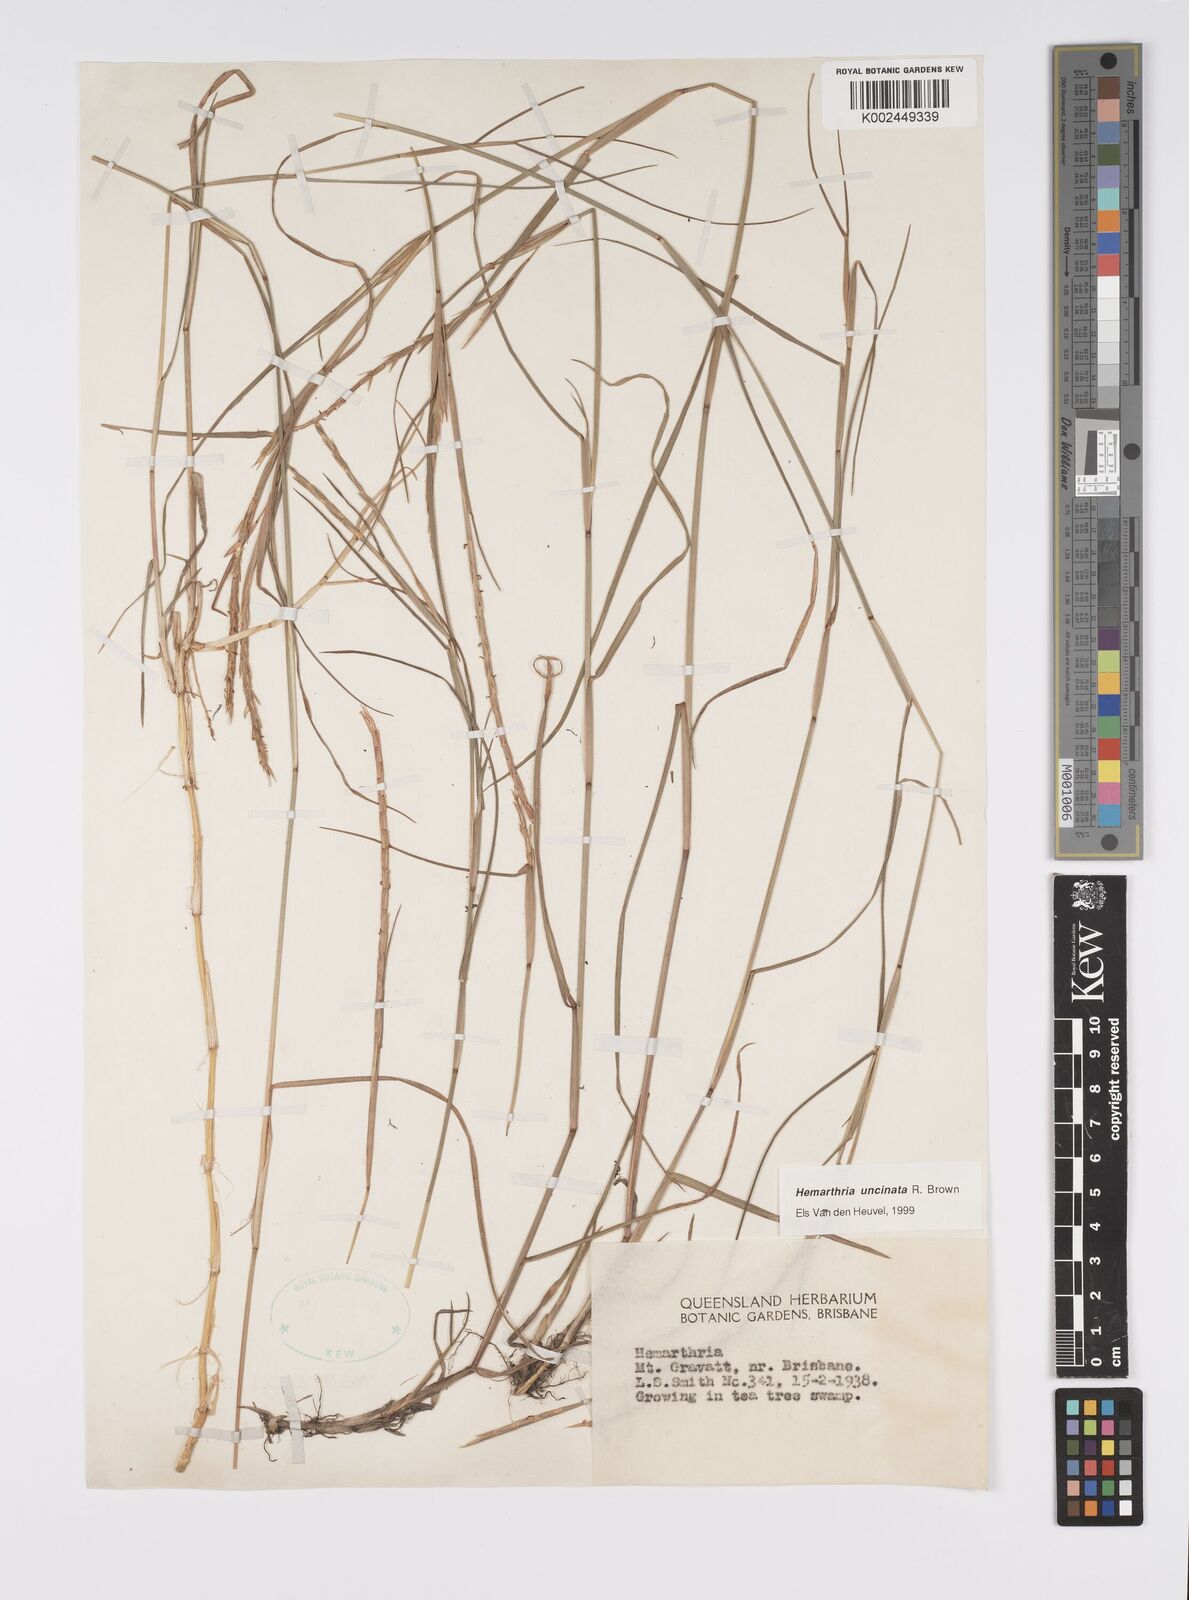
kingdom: Plantae
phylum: Tracheophyta
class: Liliopsida
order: Poales
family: Poaceae
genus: Hemarthria
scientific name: Hemarthria uncinata
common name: Matgrass
